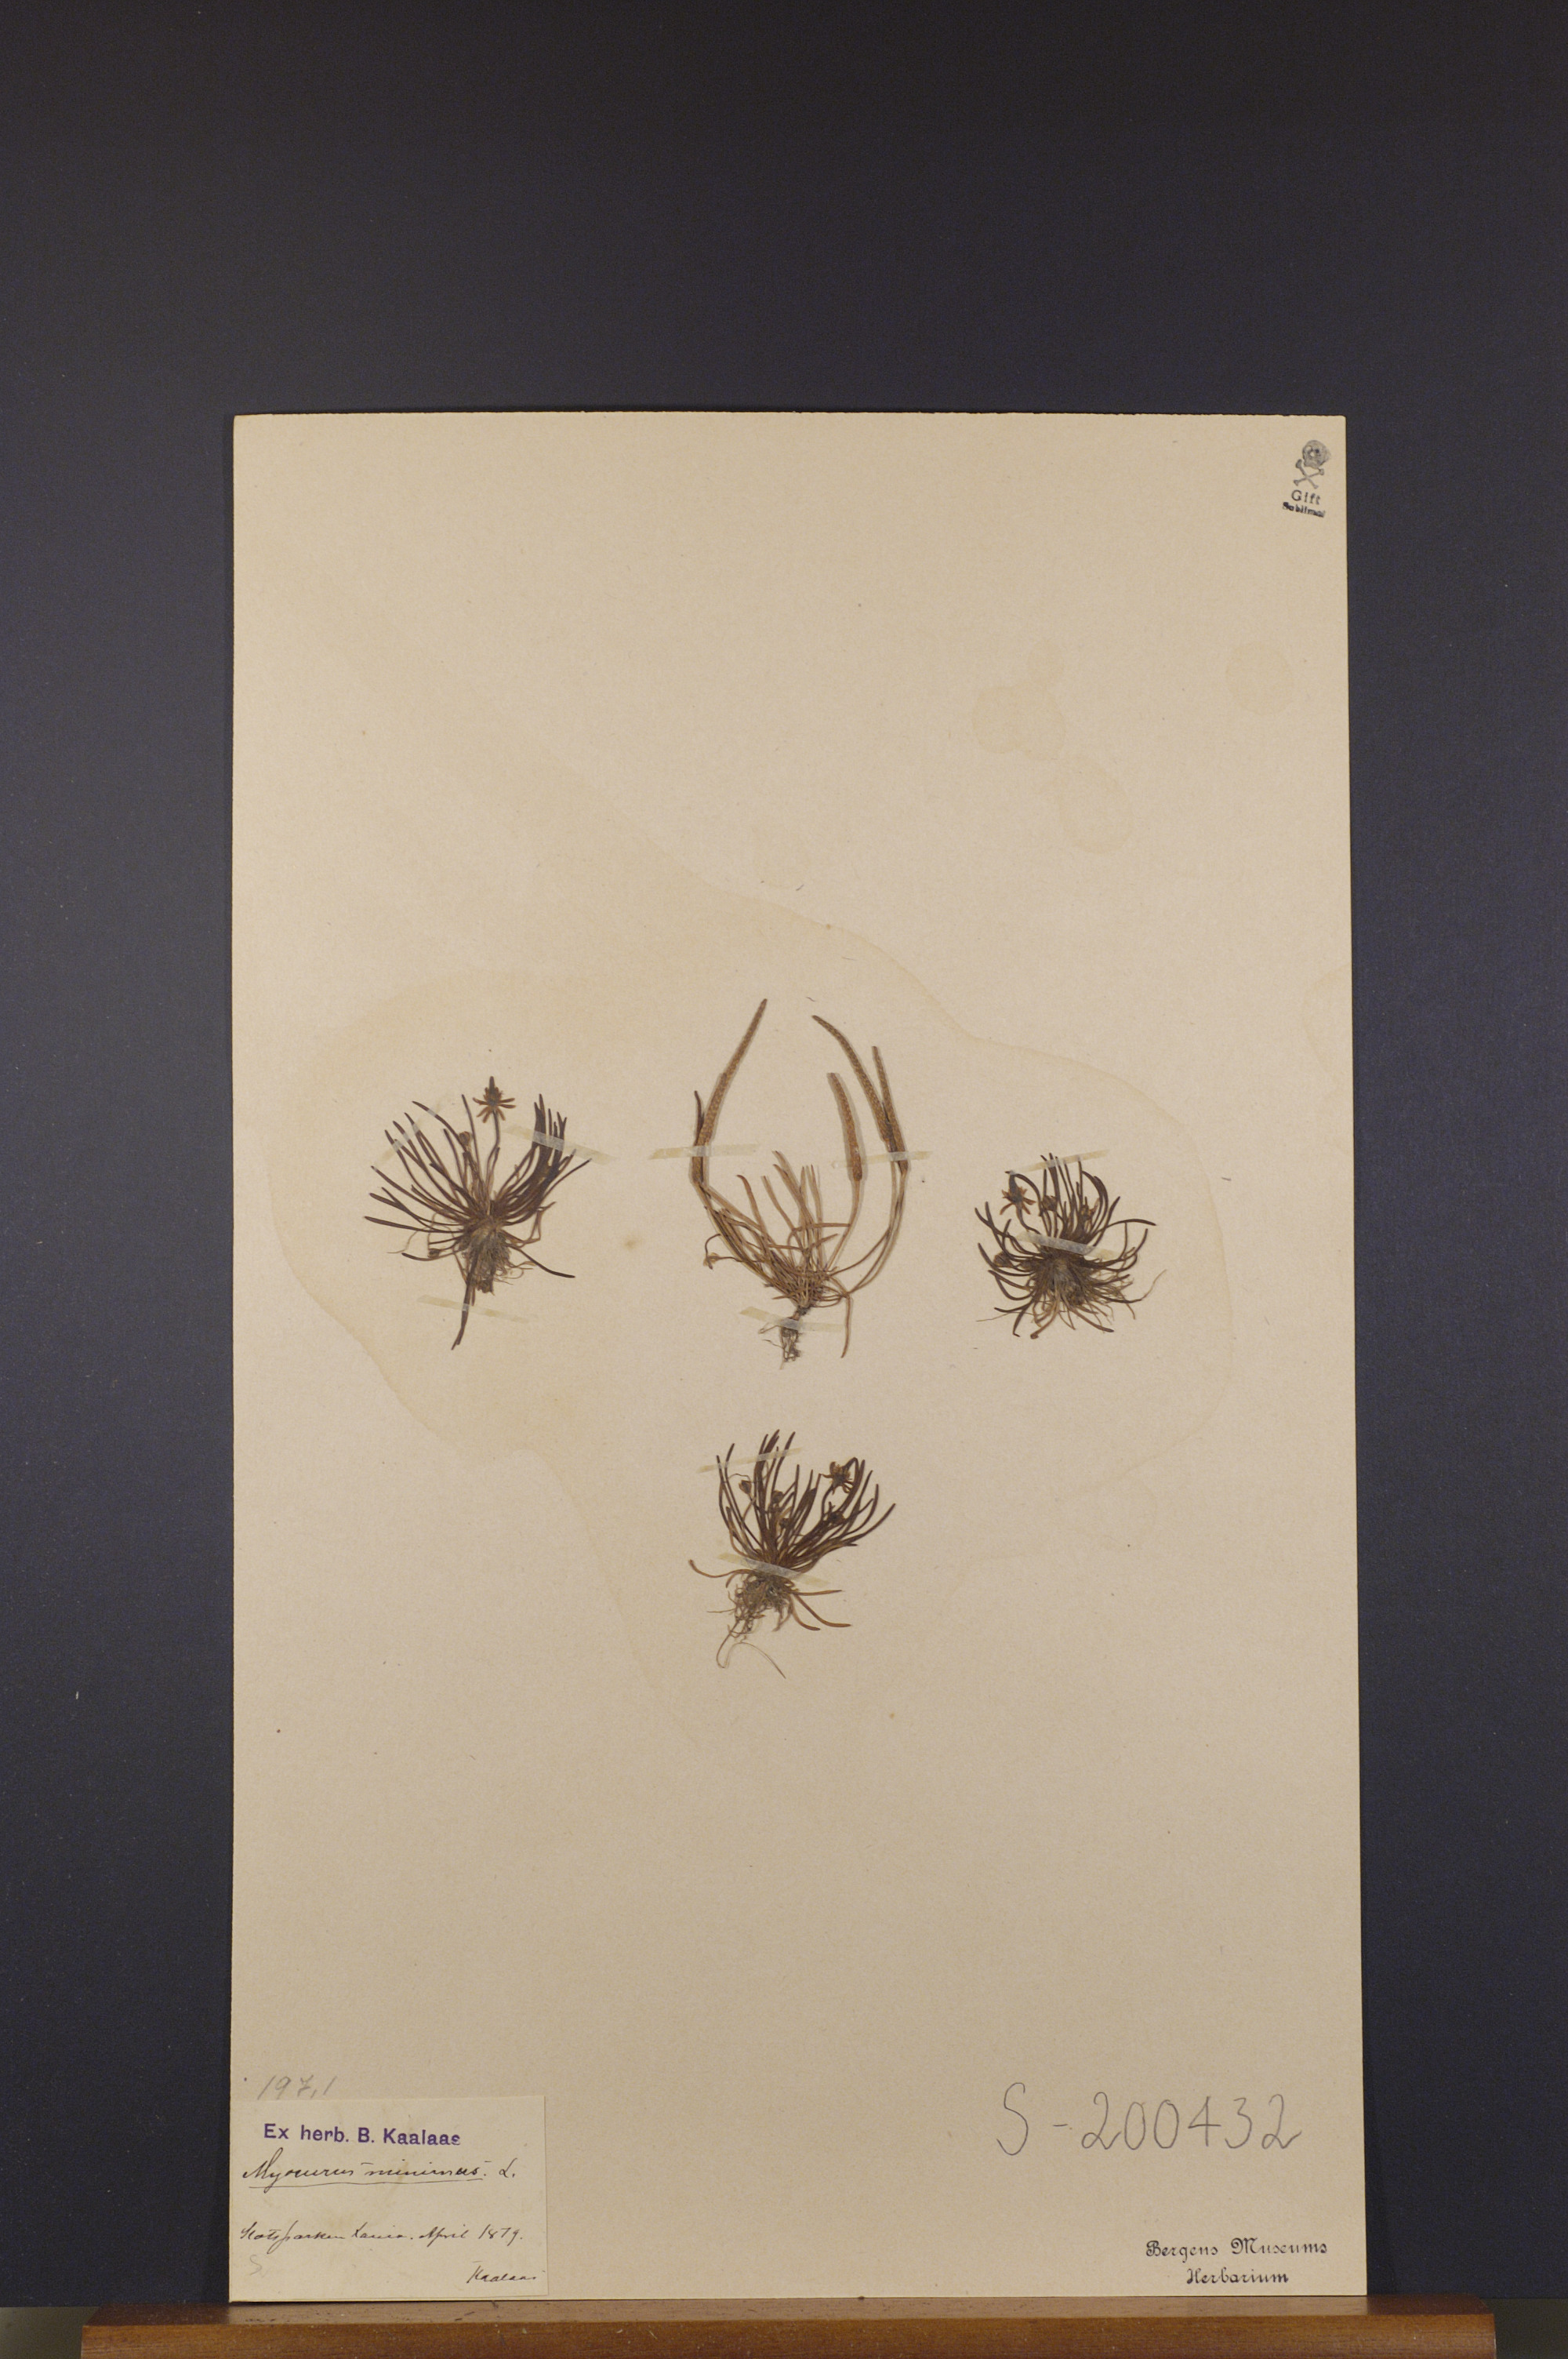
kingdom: Plantae
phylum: Tracheophyta
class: Magnoliopsida
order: Ranunculales
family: Ranunculaceae
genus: Myosurus
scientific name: Myosurus minimus
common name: Mousetail
